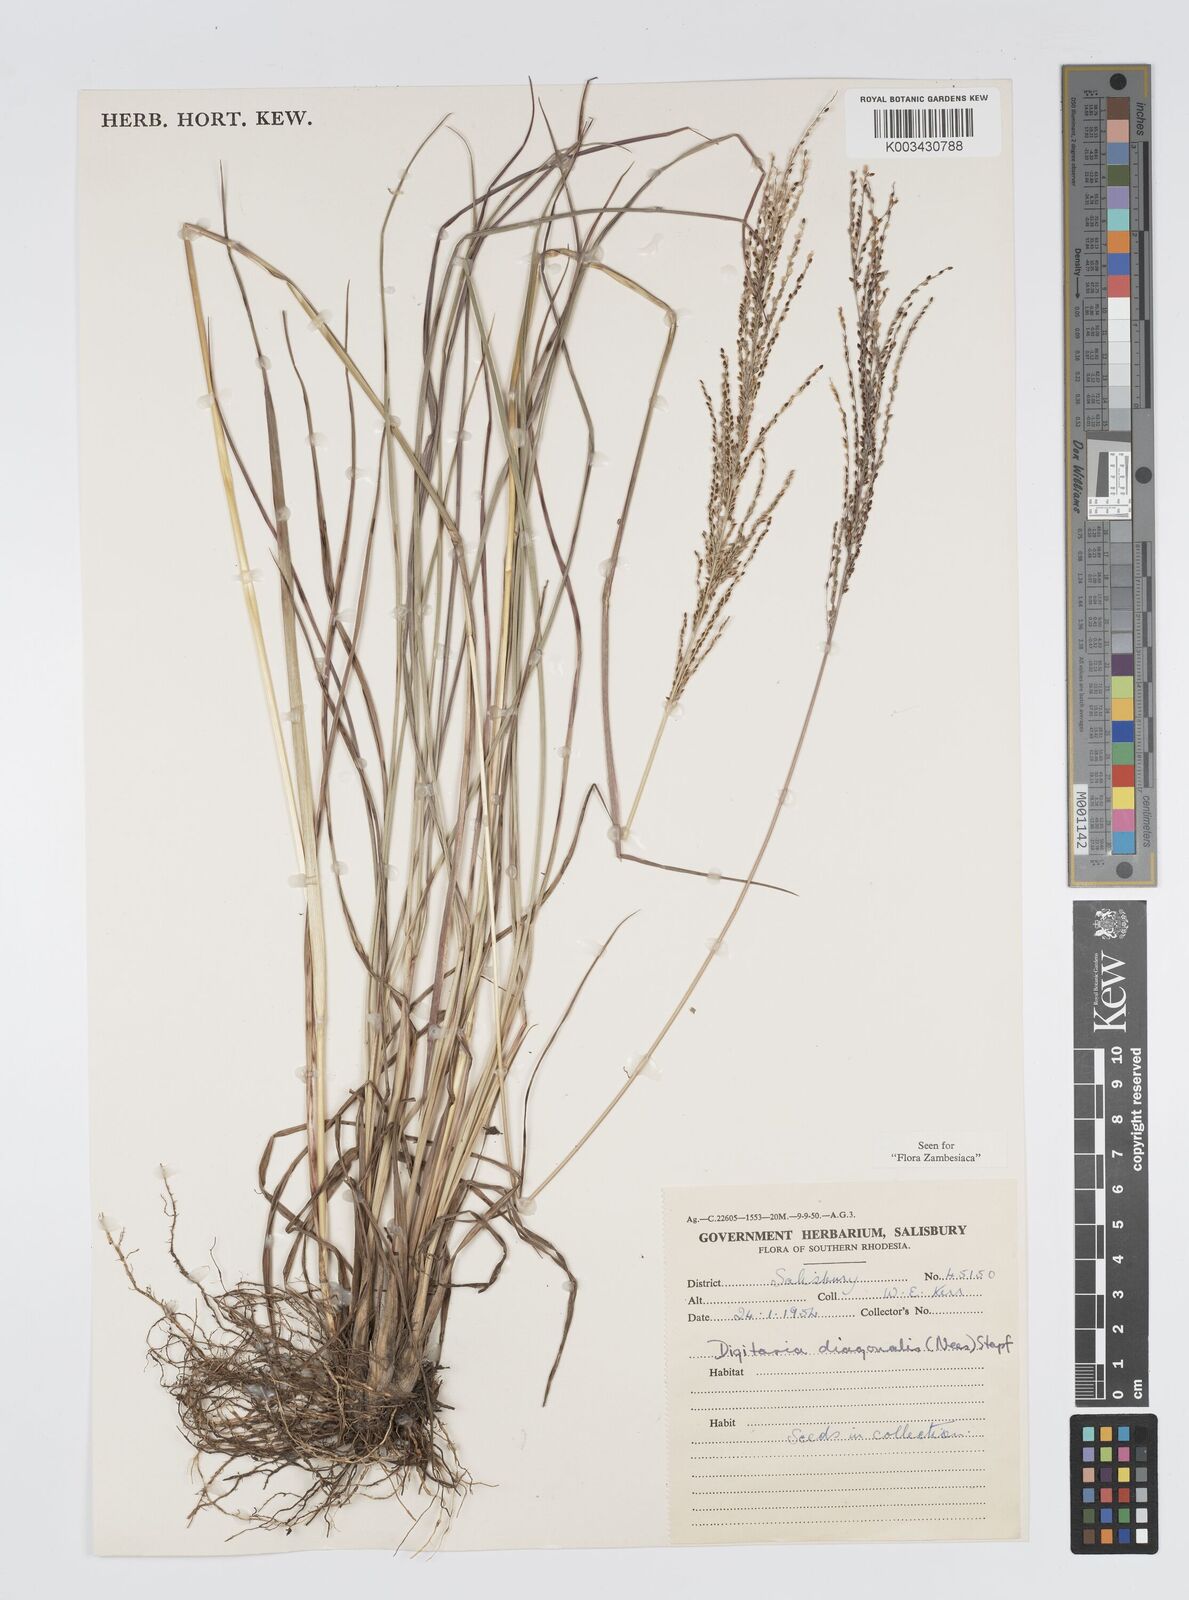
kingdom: Plantae
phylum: Tracheophyta
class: Liliopsida
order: Poales
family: Poaceae
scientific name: Poaceae
